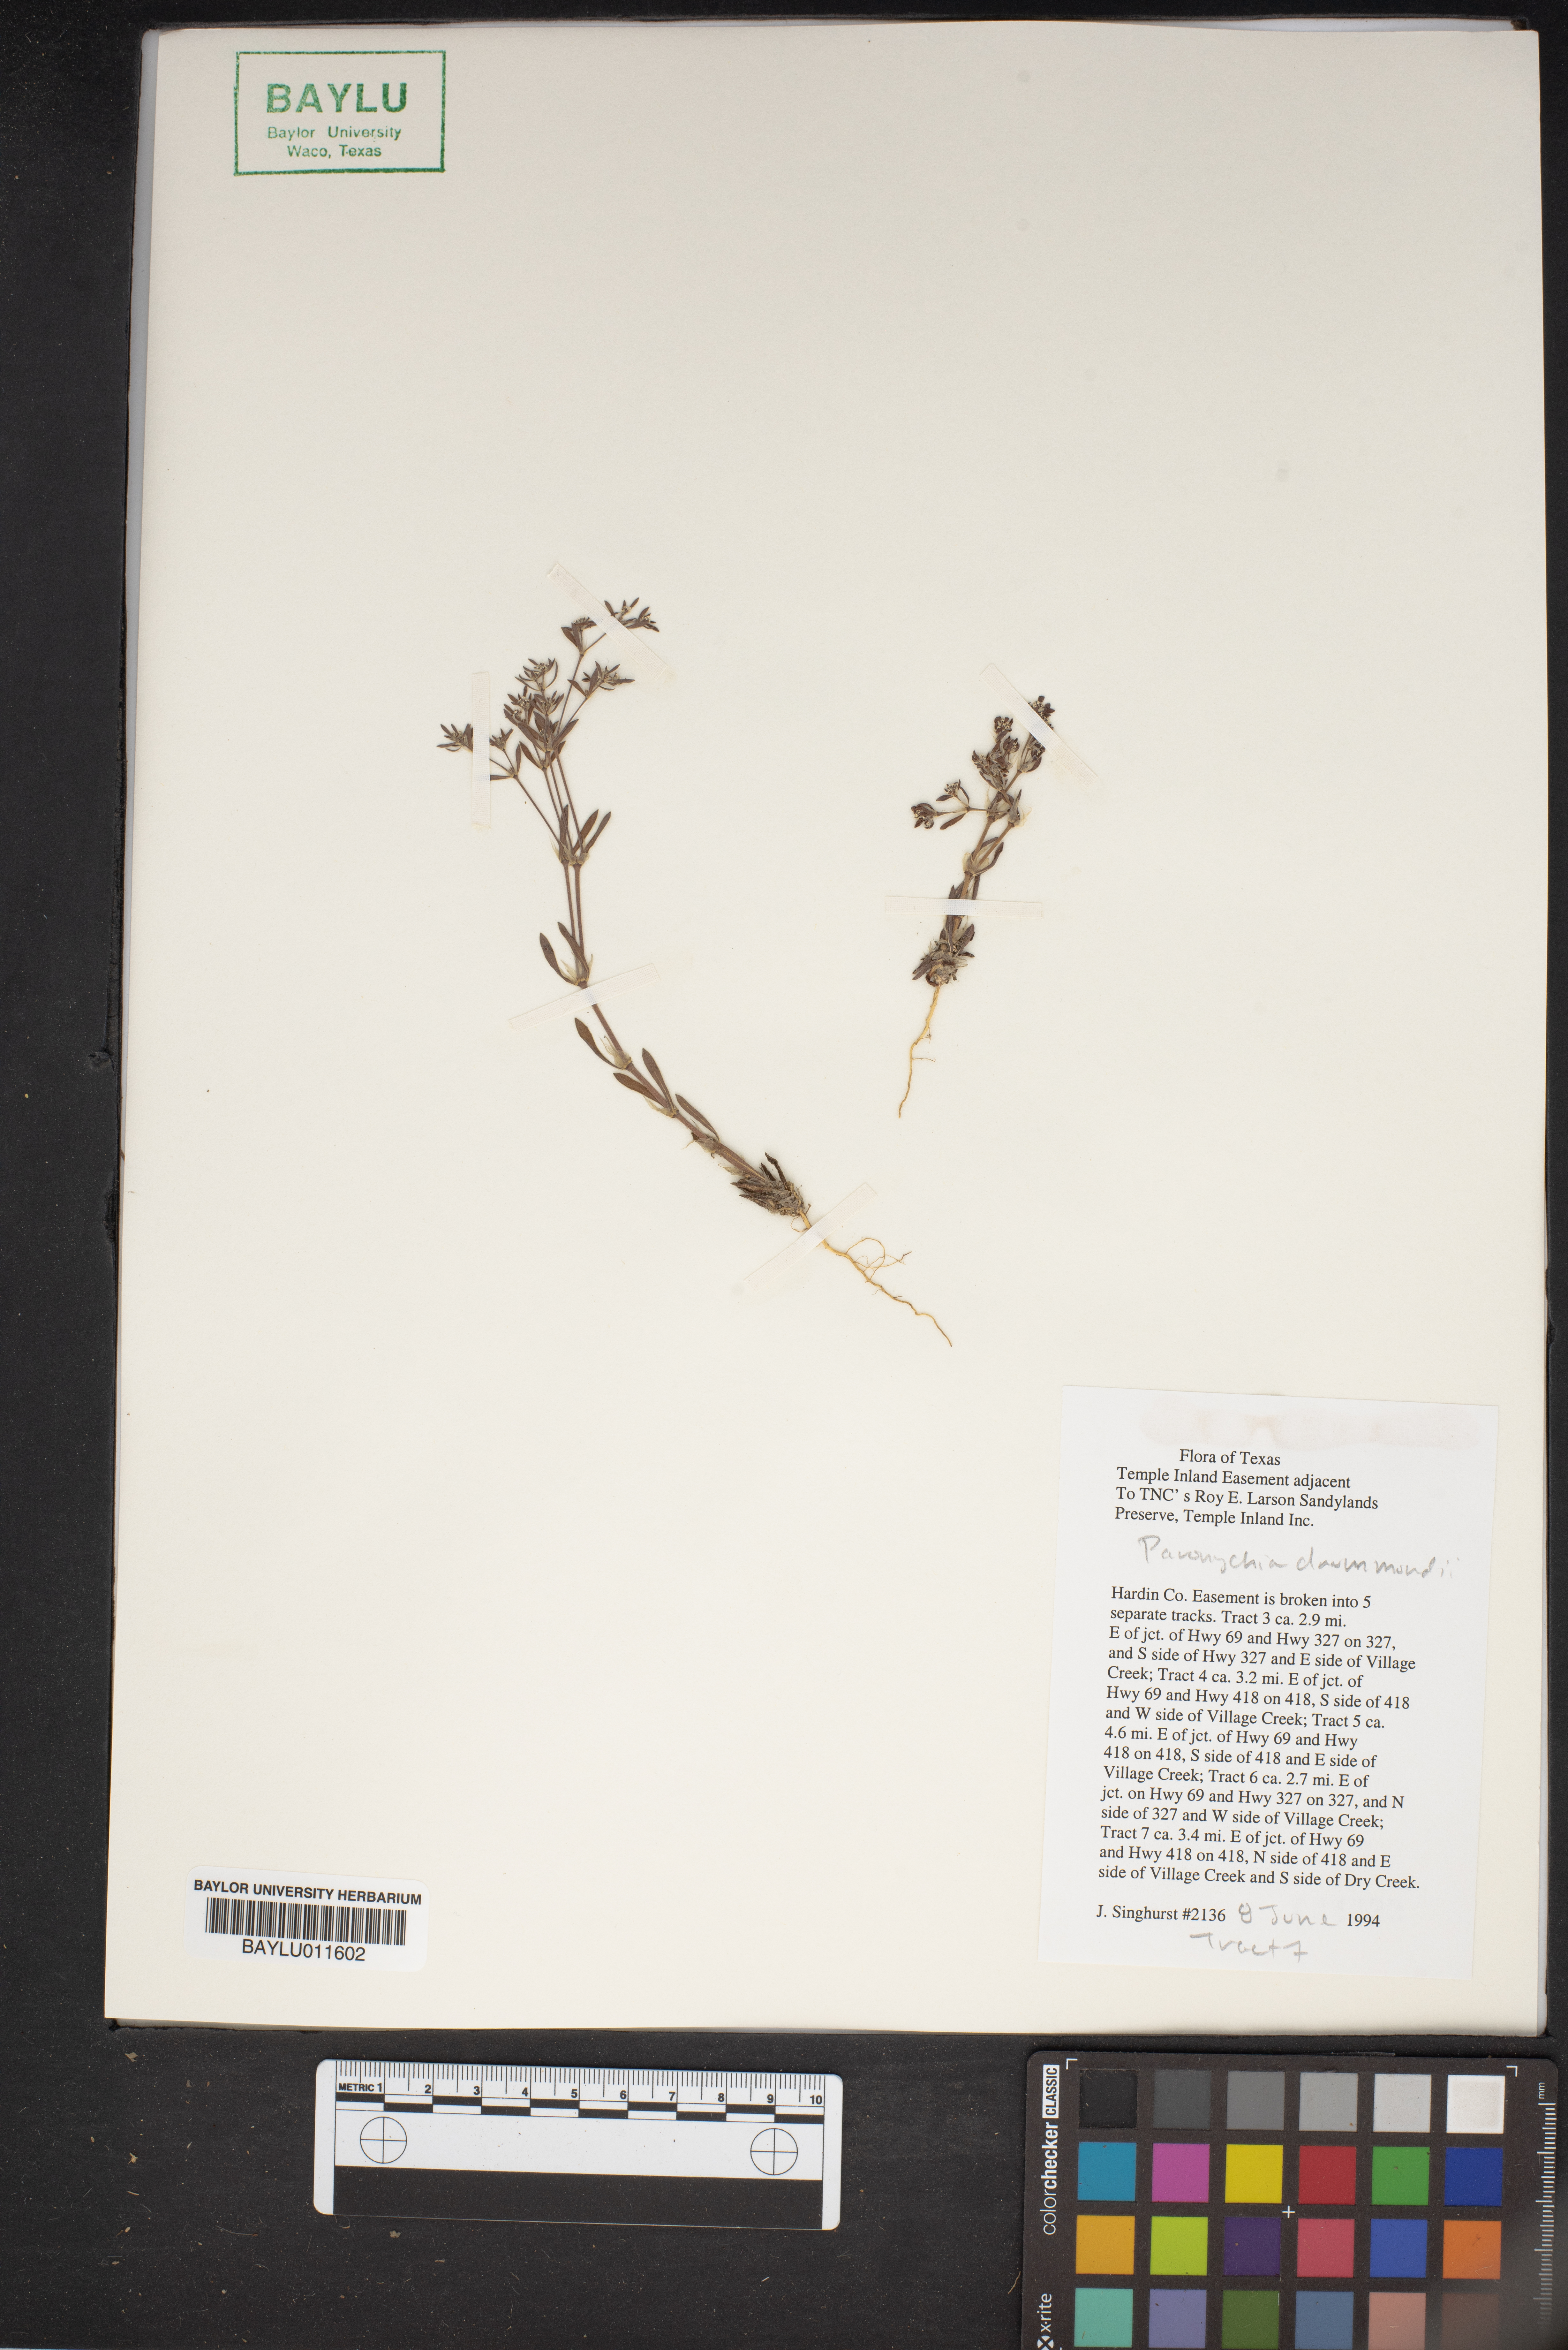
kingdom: Plantae
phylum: Tracheophyta
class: Magnoliopsida
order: Caryophyllales
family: Caryophyllaceae
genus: Paronychia
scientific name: Paronychia drummondii
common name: Drummond's nailwort
